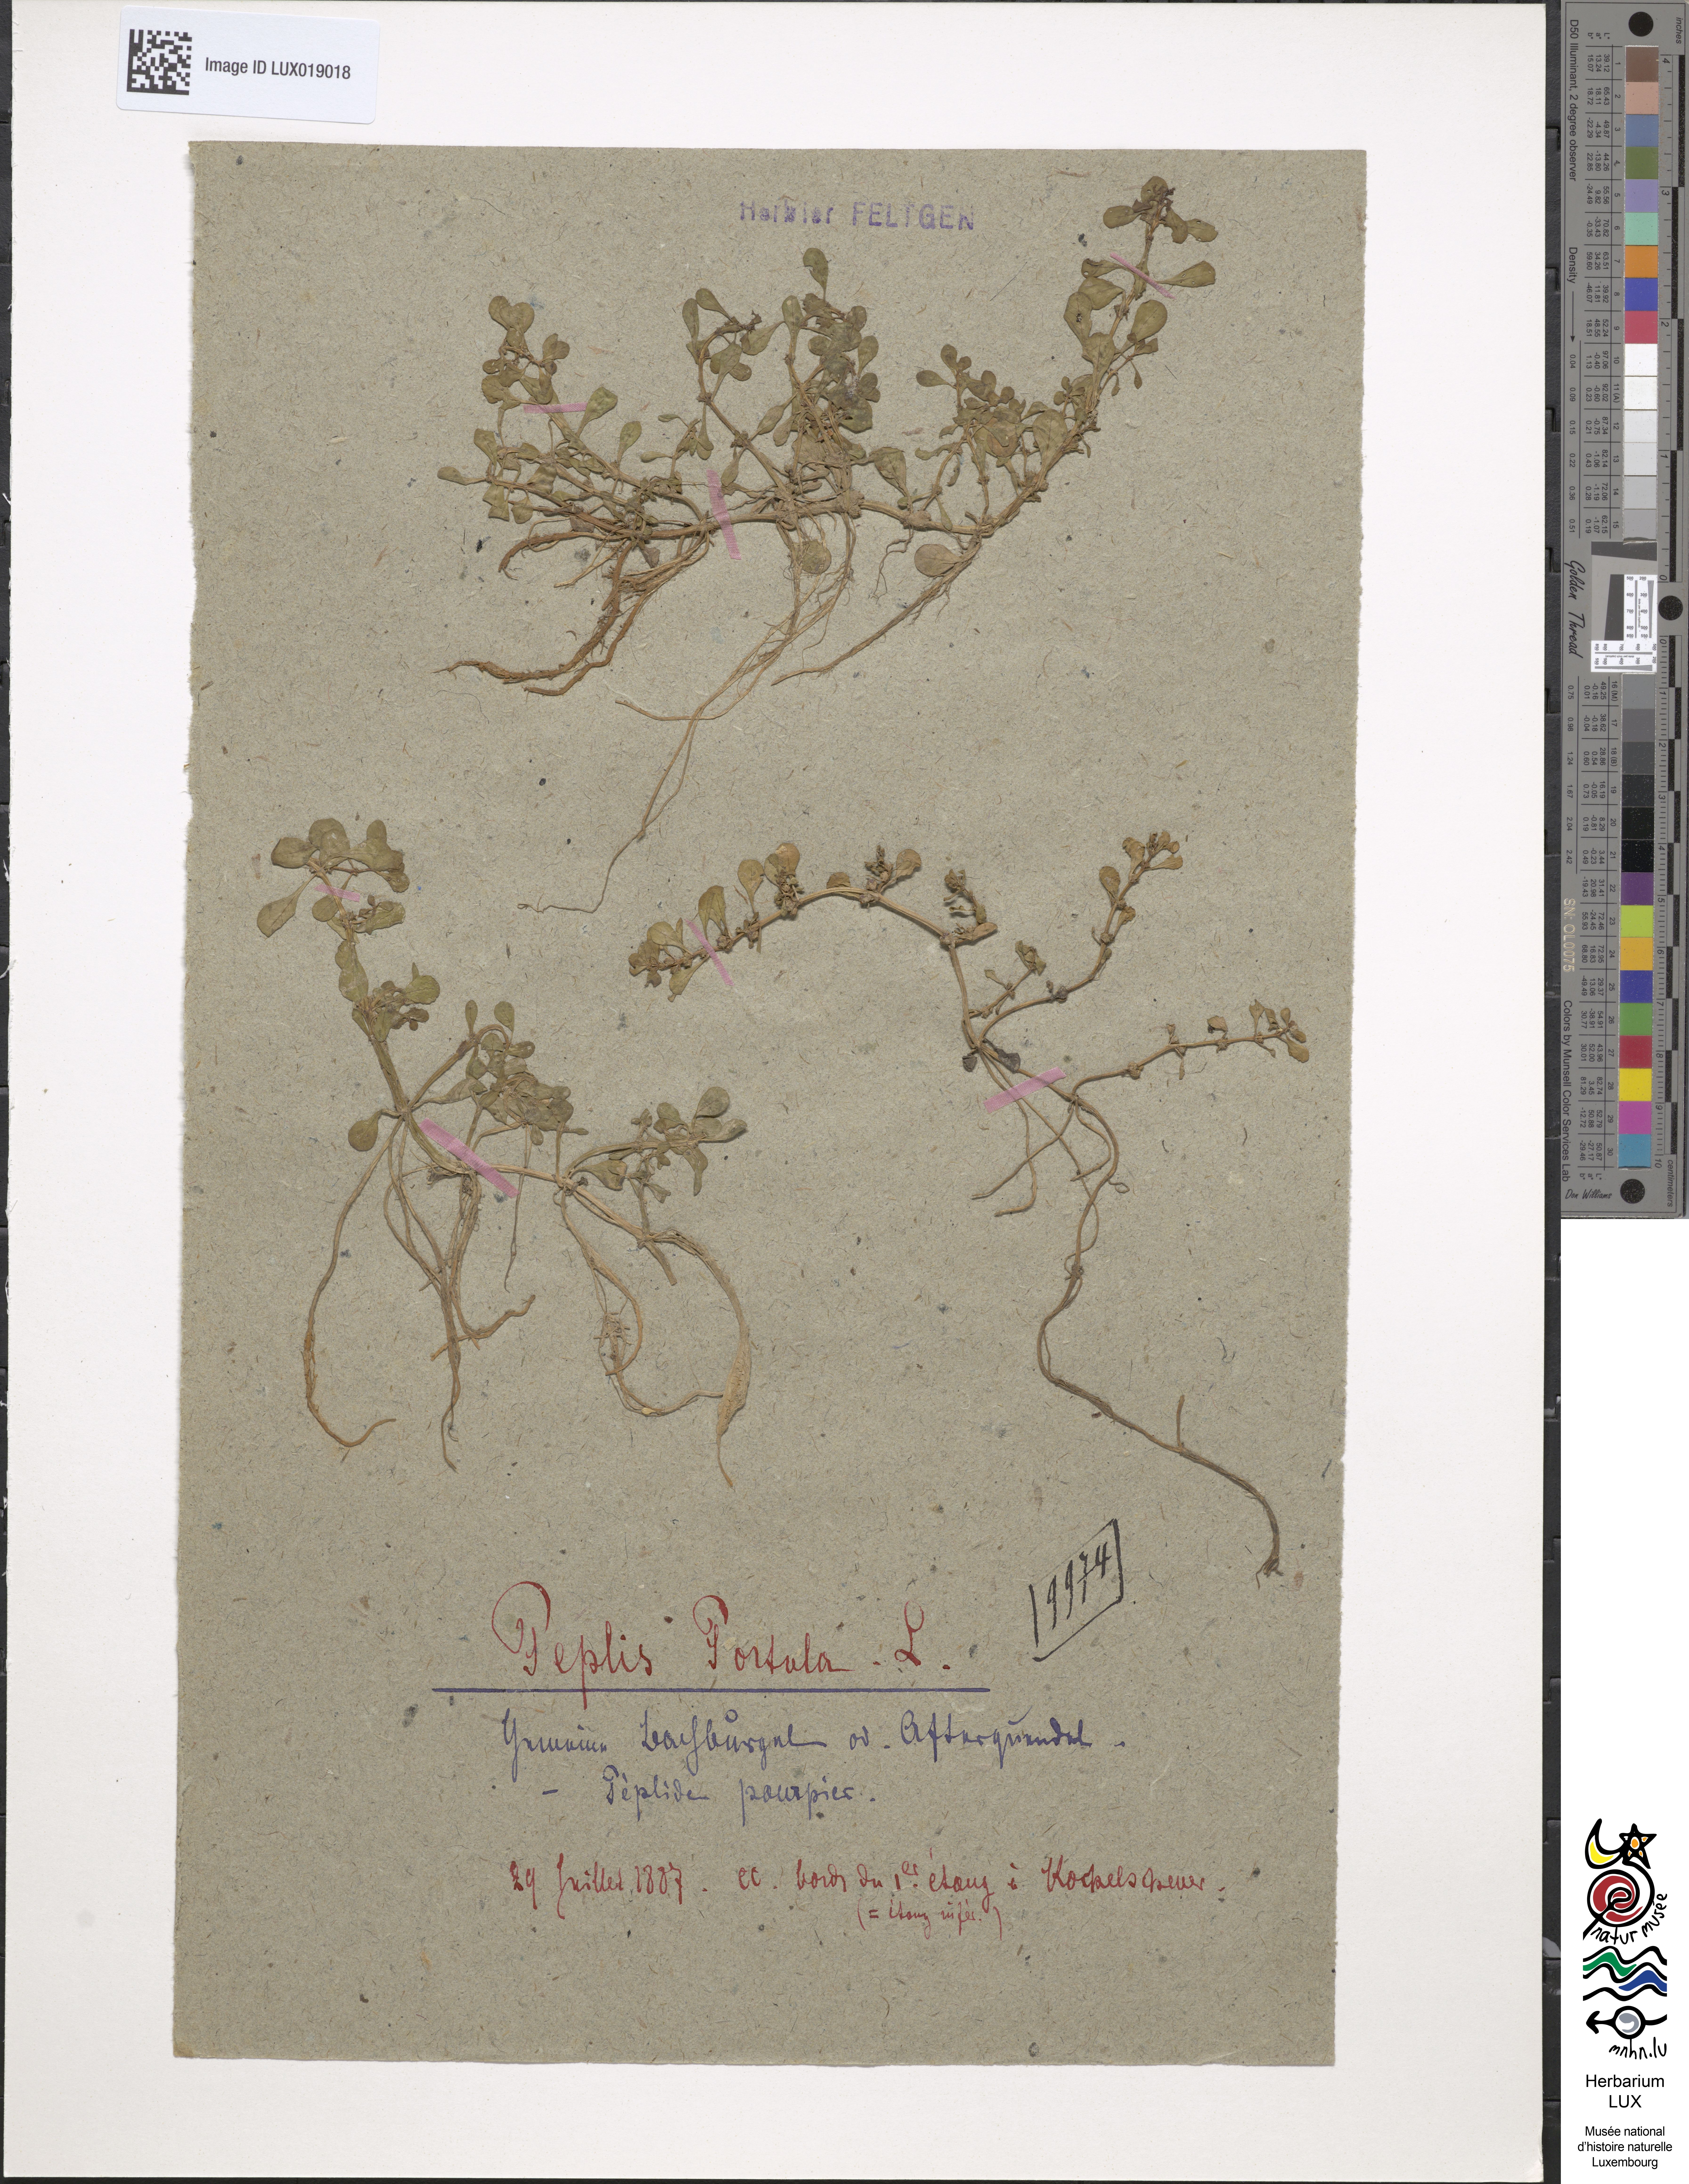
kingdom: Plantae
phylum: Tracheophyta
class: Magnoliopsida
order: Myrtales
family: Lythraceae
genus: Lythrum
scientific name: Lythrum portula
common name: Water purslane
